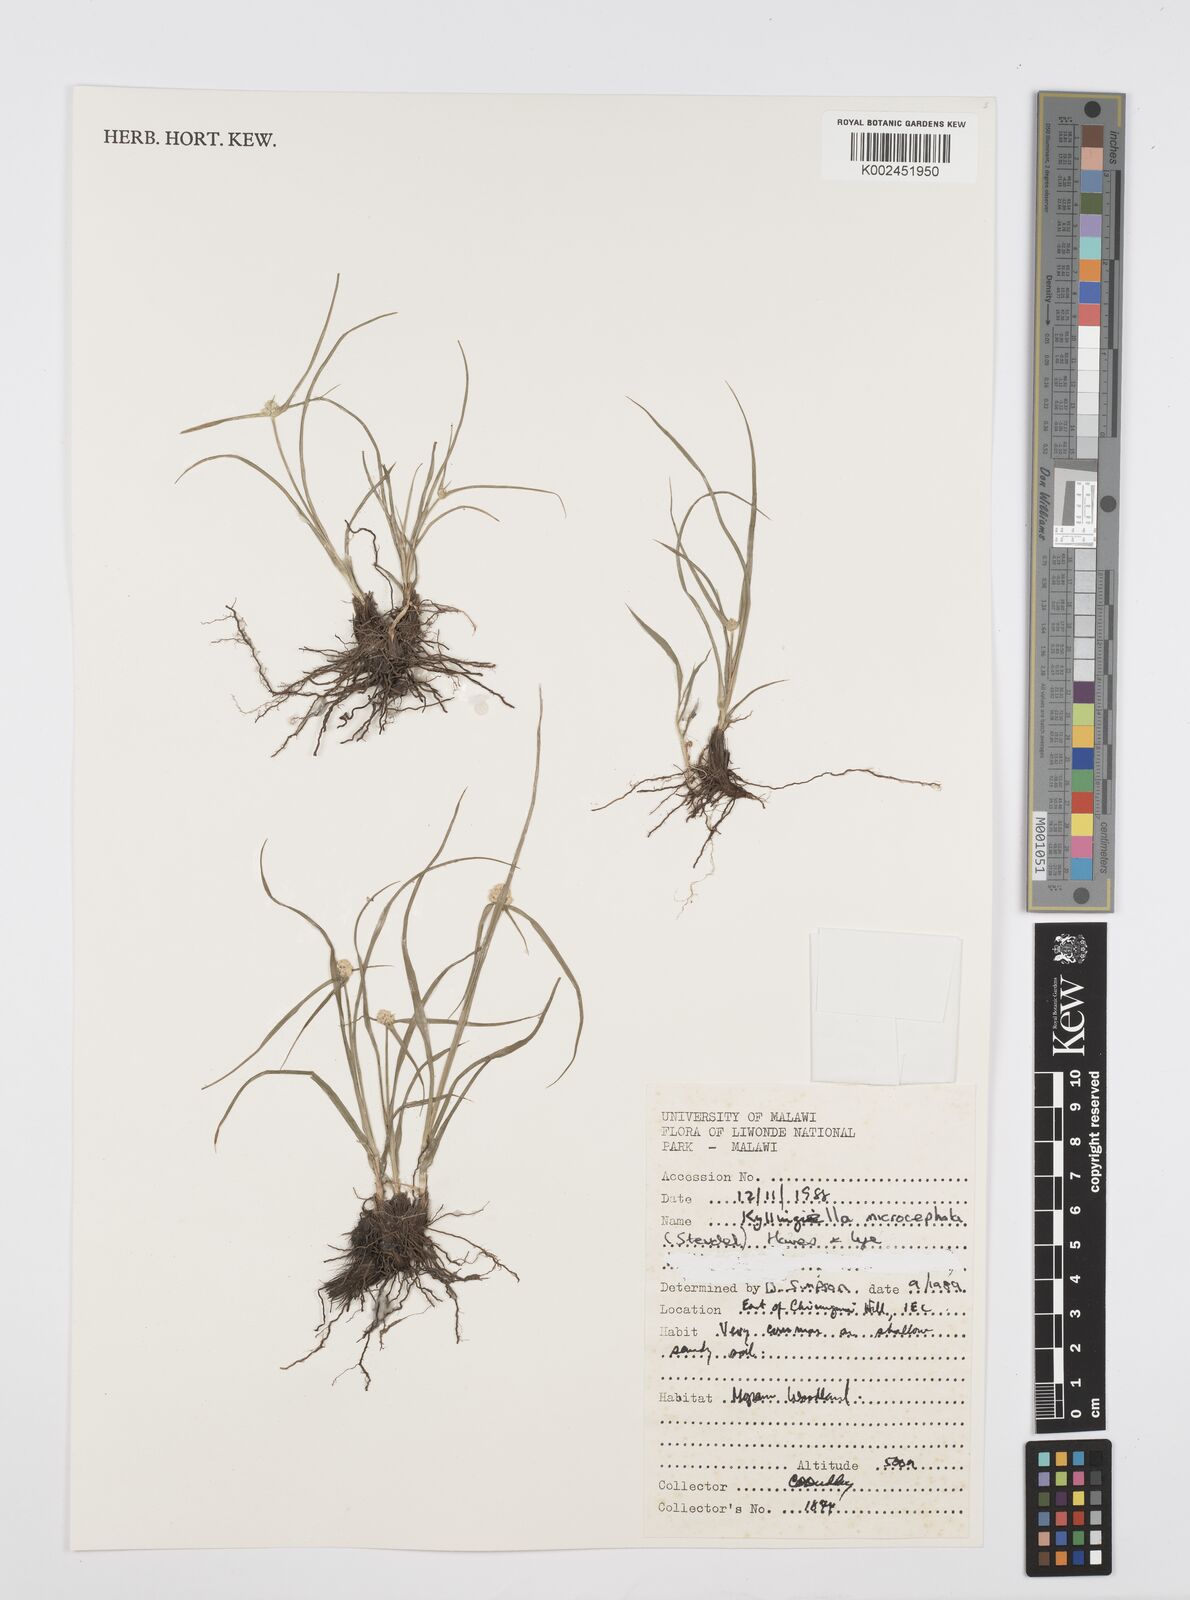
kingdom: Plantae
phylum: Tracheophyta
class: Liliopsida
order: Poales
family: Cyperaceae
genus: Cyperus
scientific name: Cyperus microcephalus
